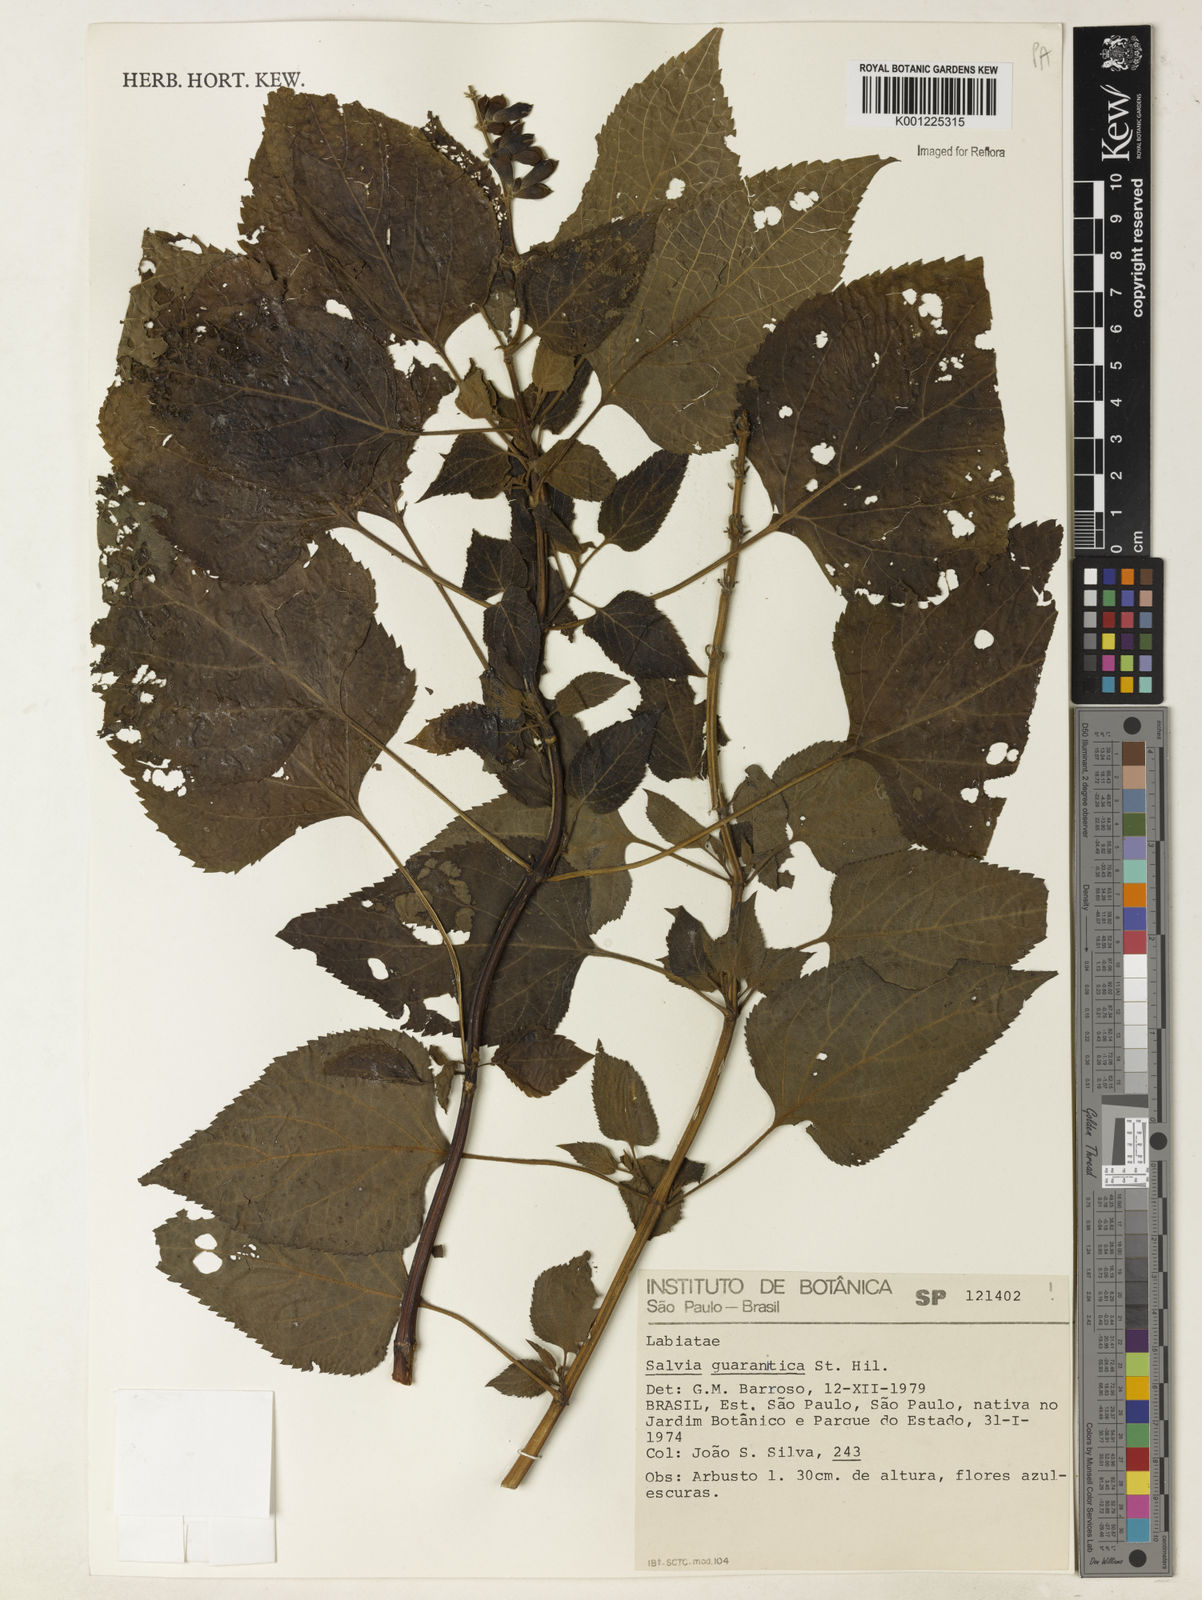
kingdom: Plantae
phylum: Tracheophyta
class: Magnoliopsida
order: Lamiales
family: Lamiaceae
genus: Salvia
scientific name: Salvia guaranitica
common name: Anise-scented sage
